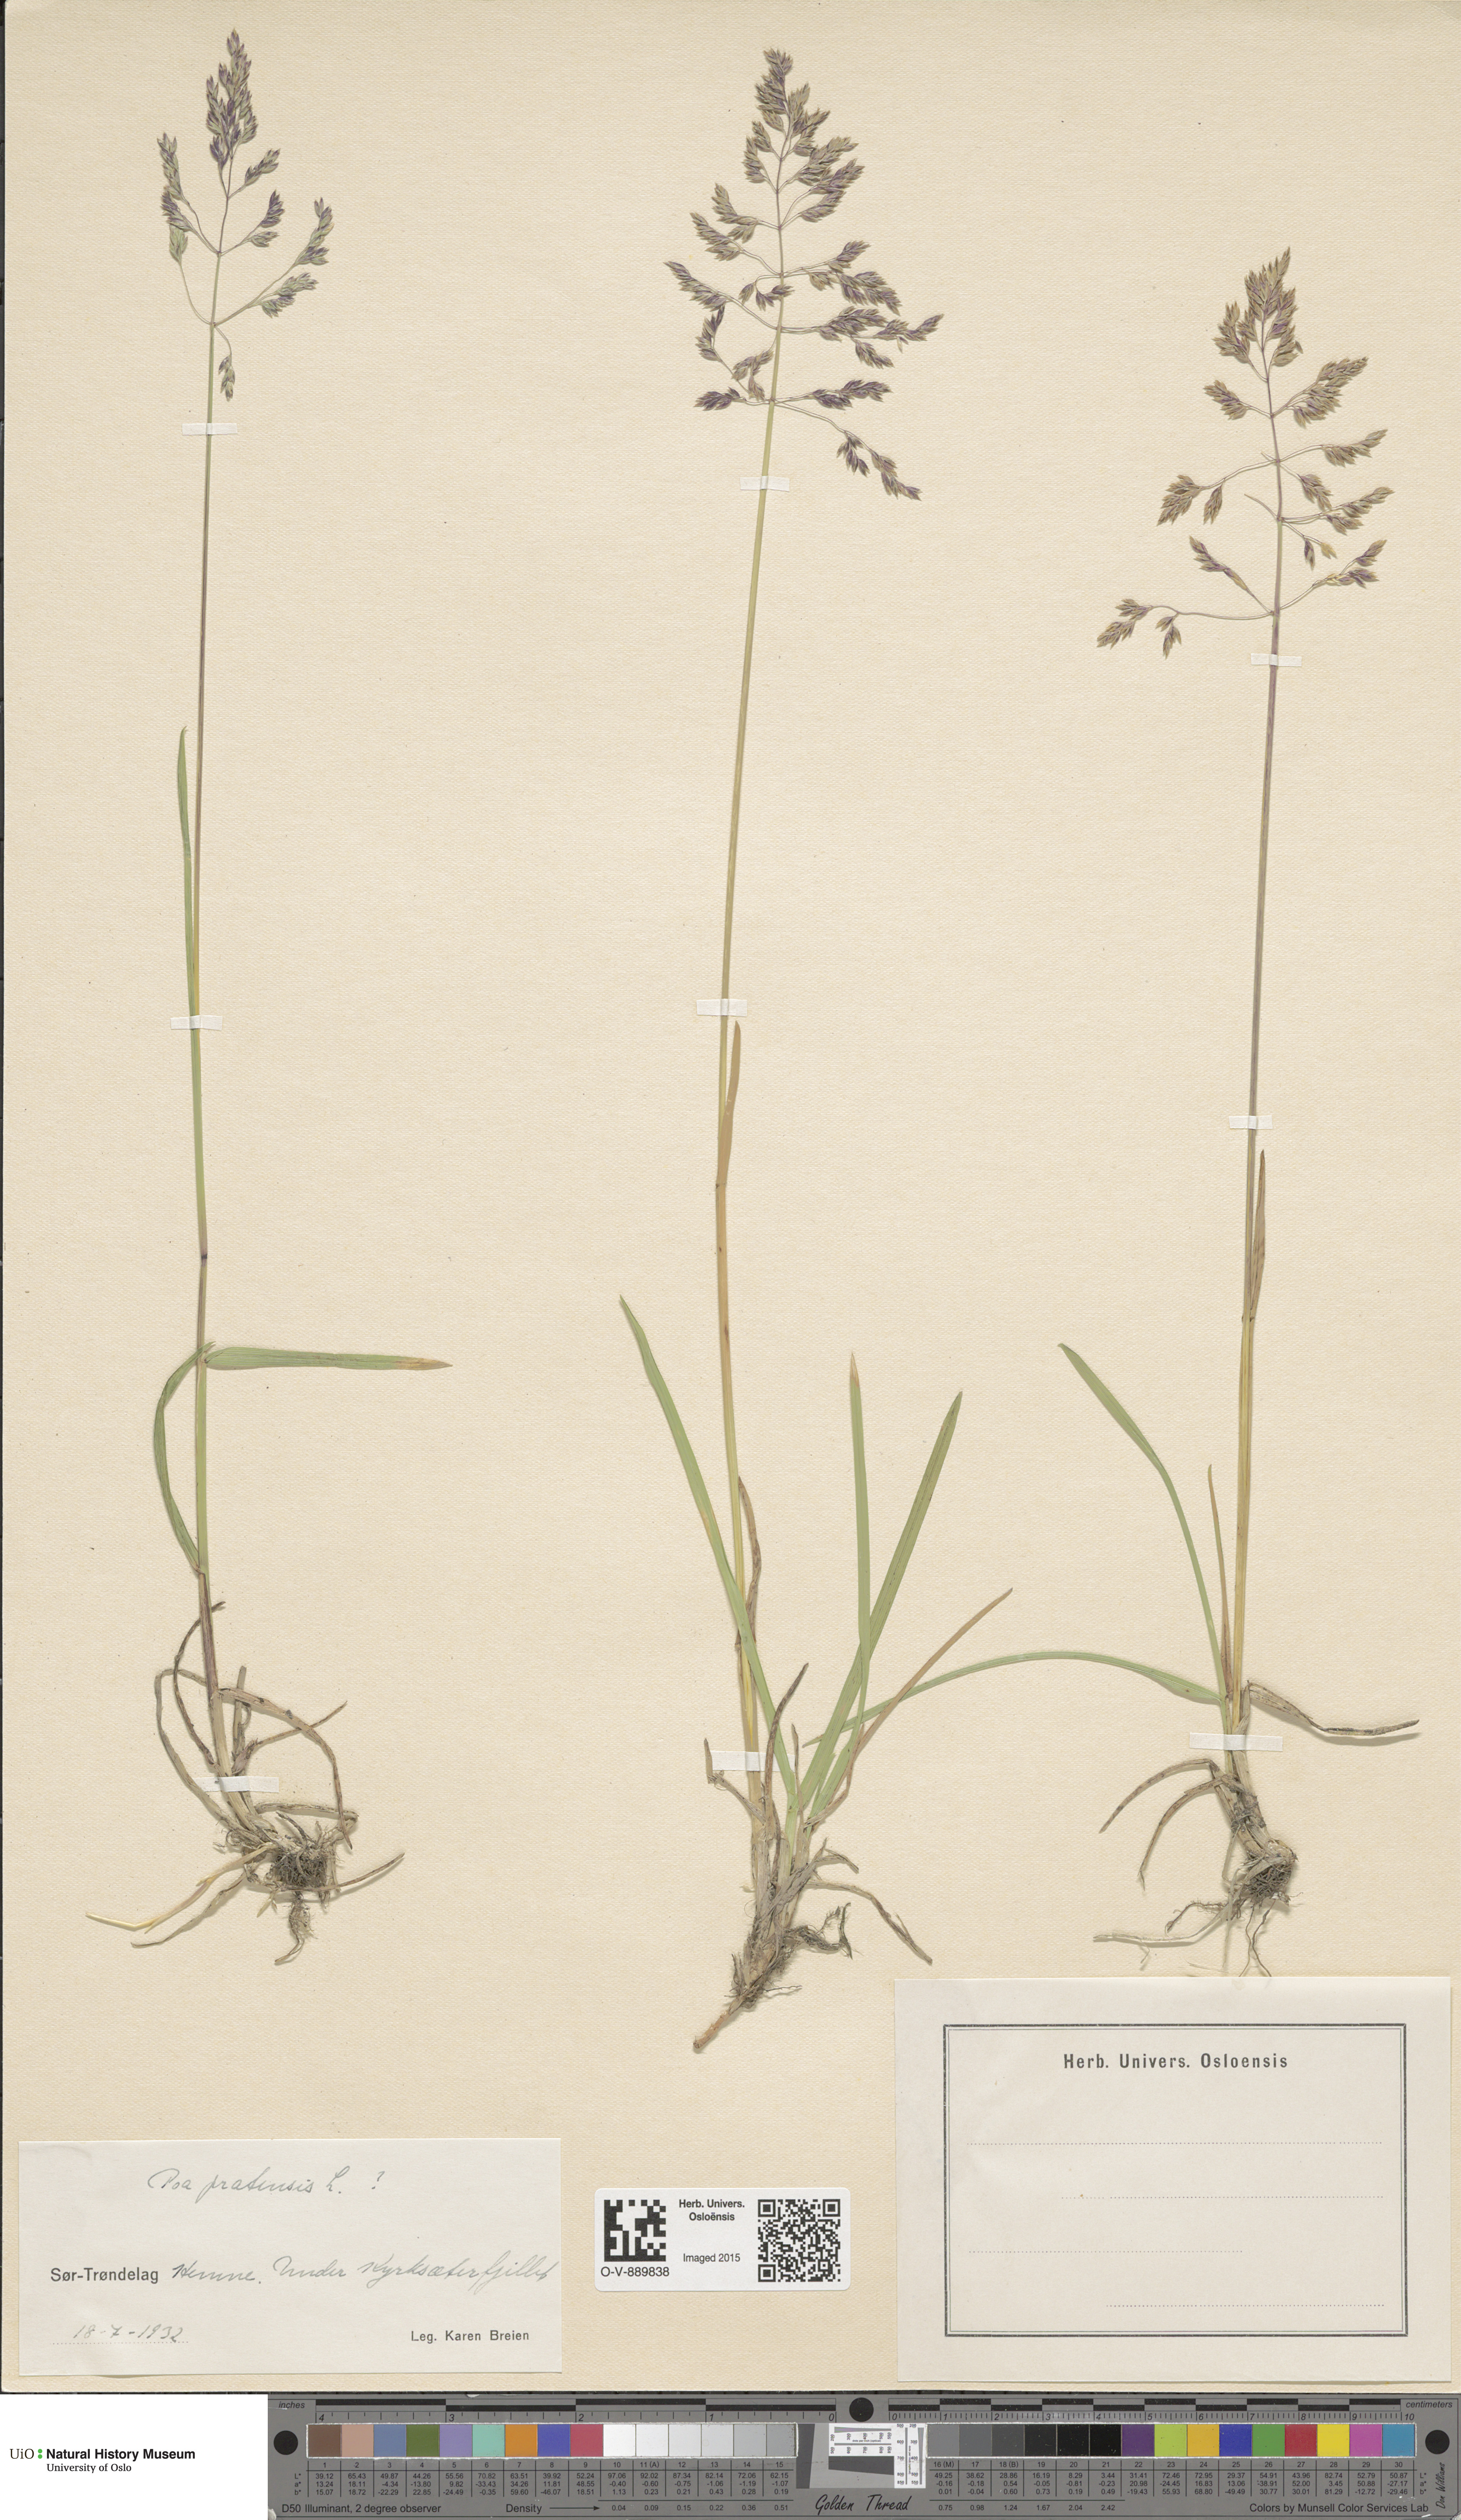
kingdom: Plantae
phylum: Tracheophyta
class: Liliopsida
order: Poales
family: Poaceae
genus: Poa
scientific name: Poa pratensis
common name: Kentucky bluegrass
